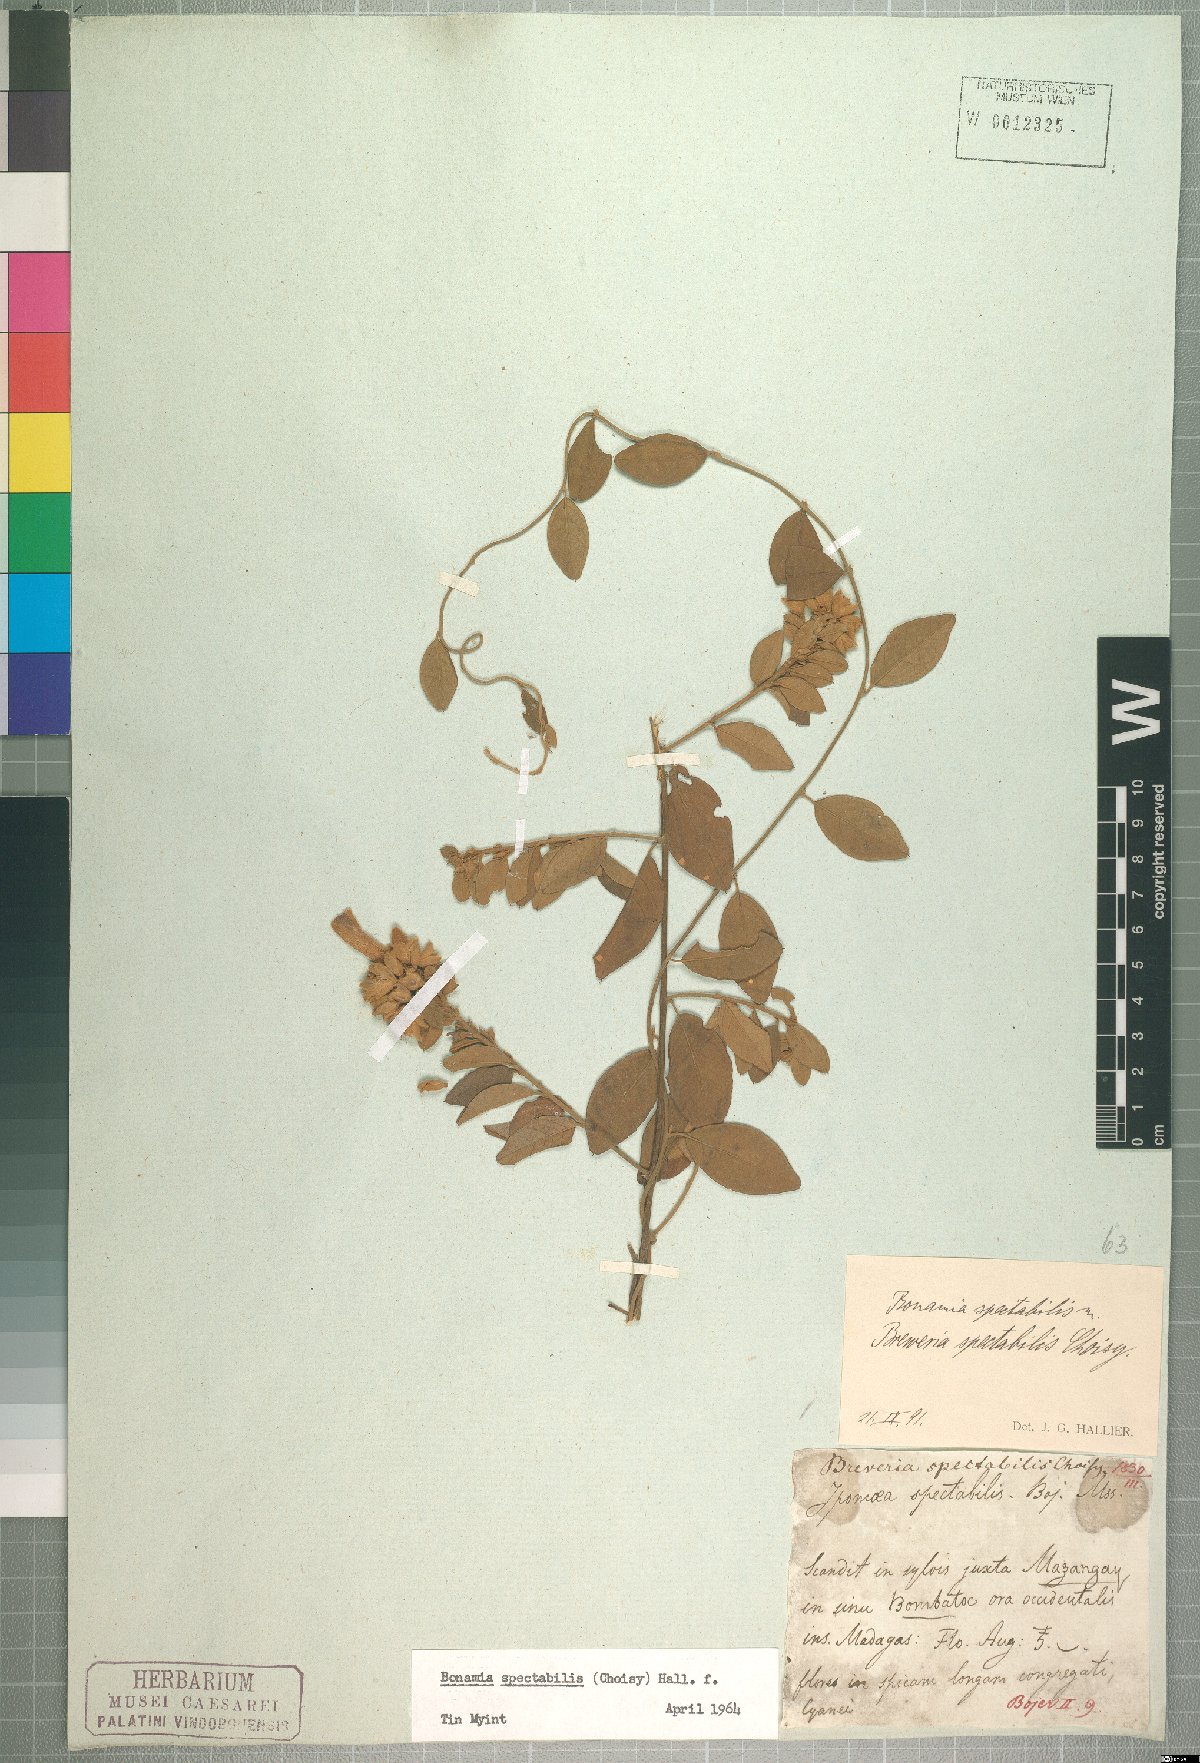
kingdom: Plantae
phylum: Tracheophyta
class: Magnoliopsida
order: Solanales
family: Convolvulaceae
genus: Bonamia
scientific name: Bonamia spectabilis
